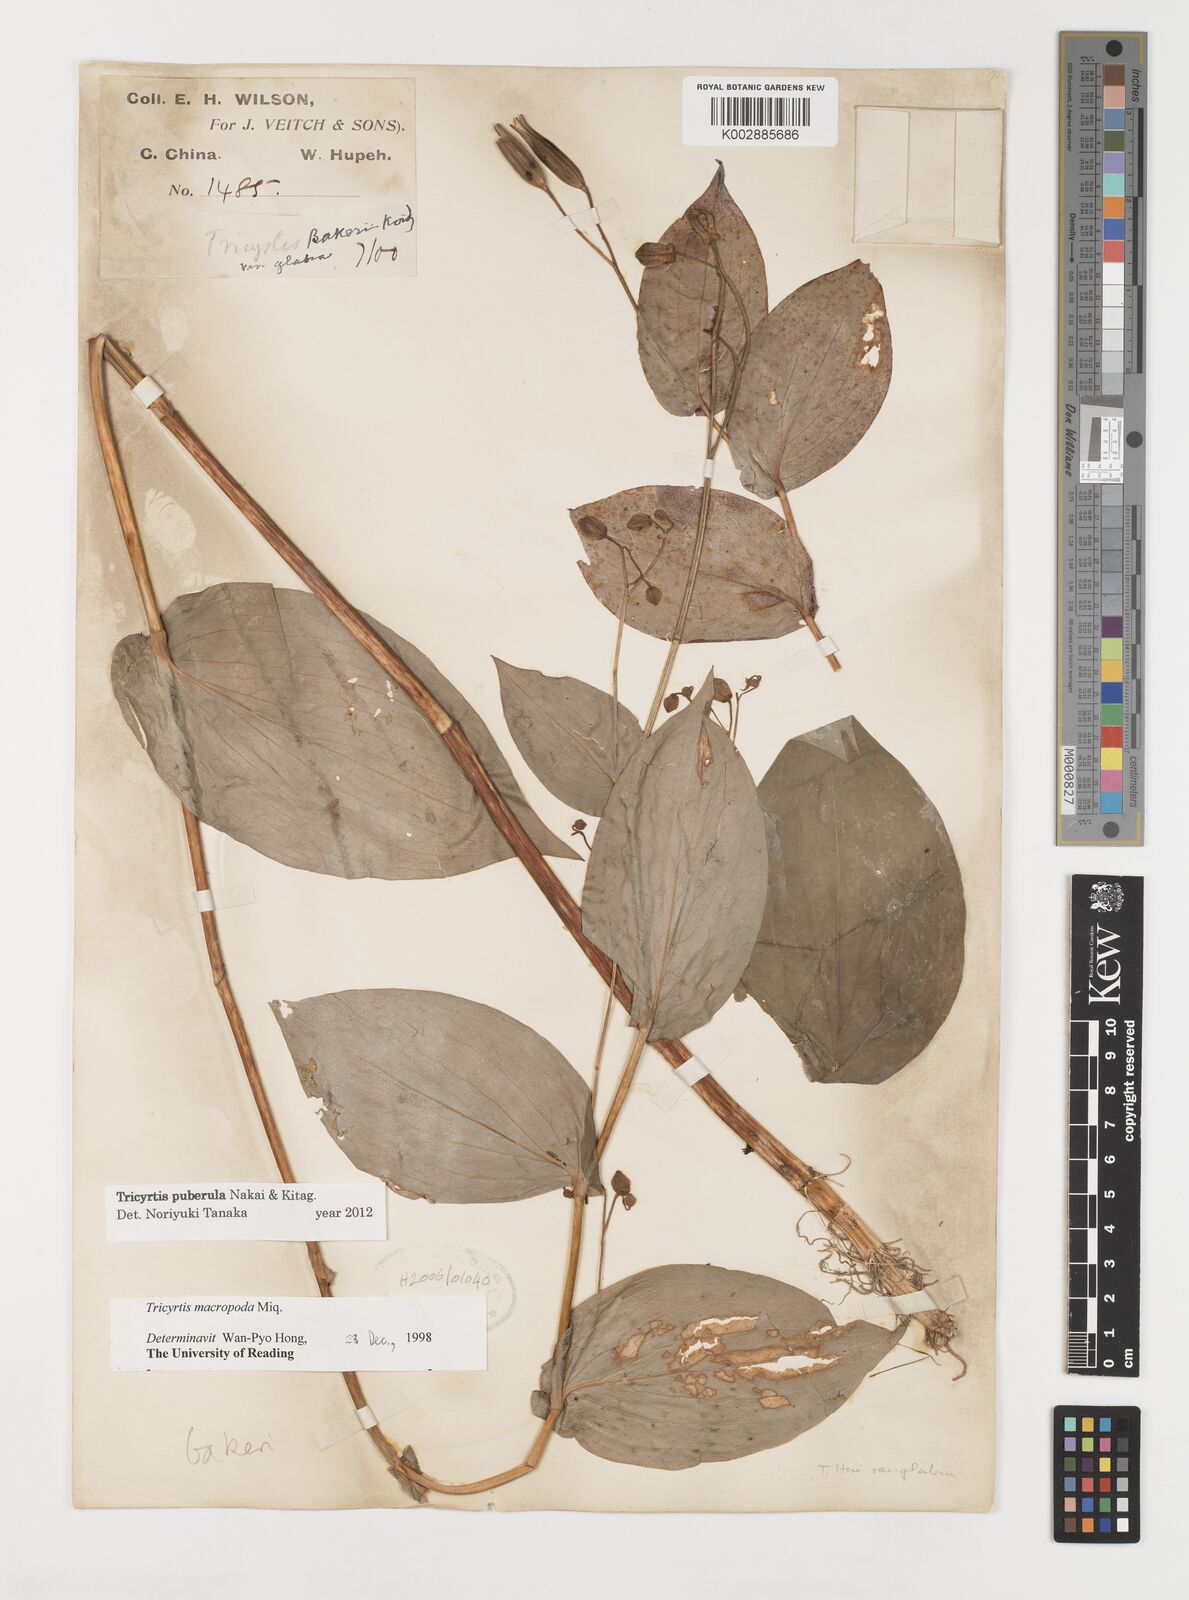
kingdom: Plantae
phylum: Tracheophyta
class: Liliopsida
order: Liliales
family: Liliaceae
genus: Tricyrtis
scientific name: Tricyrtis puberula
